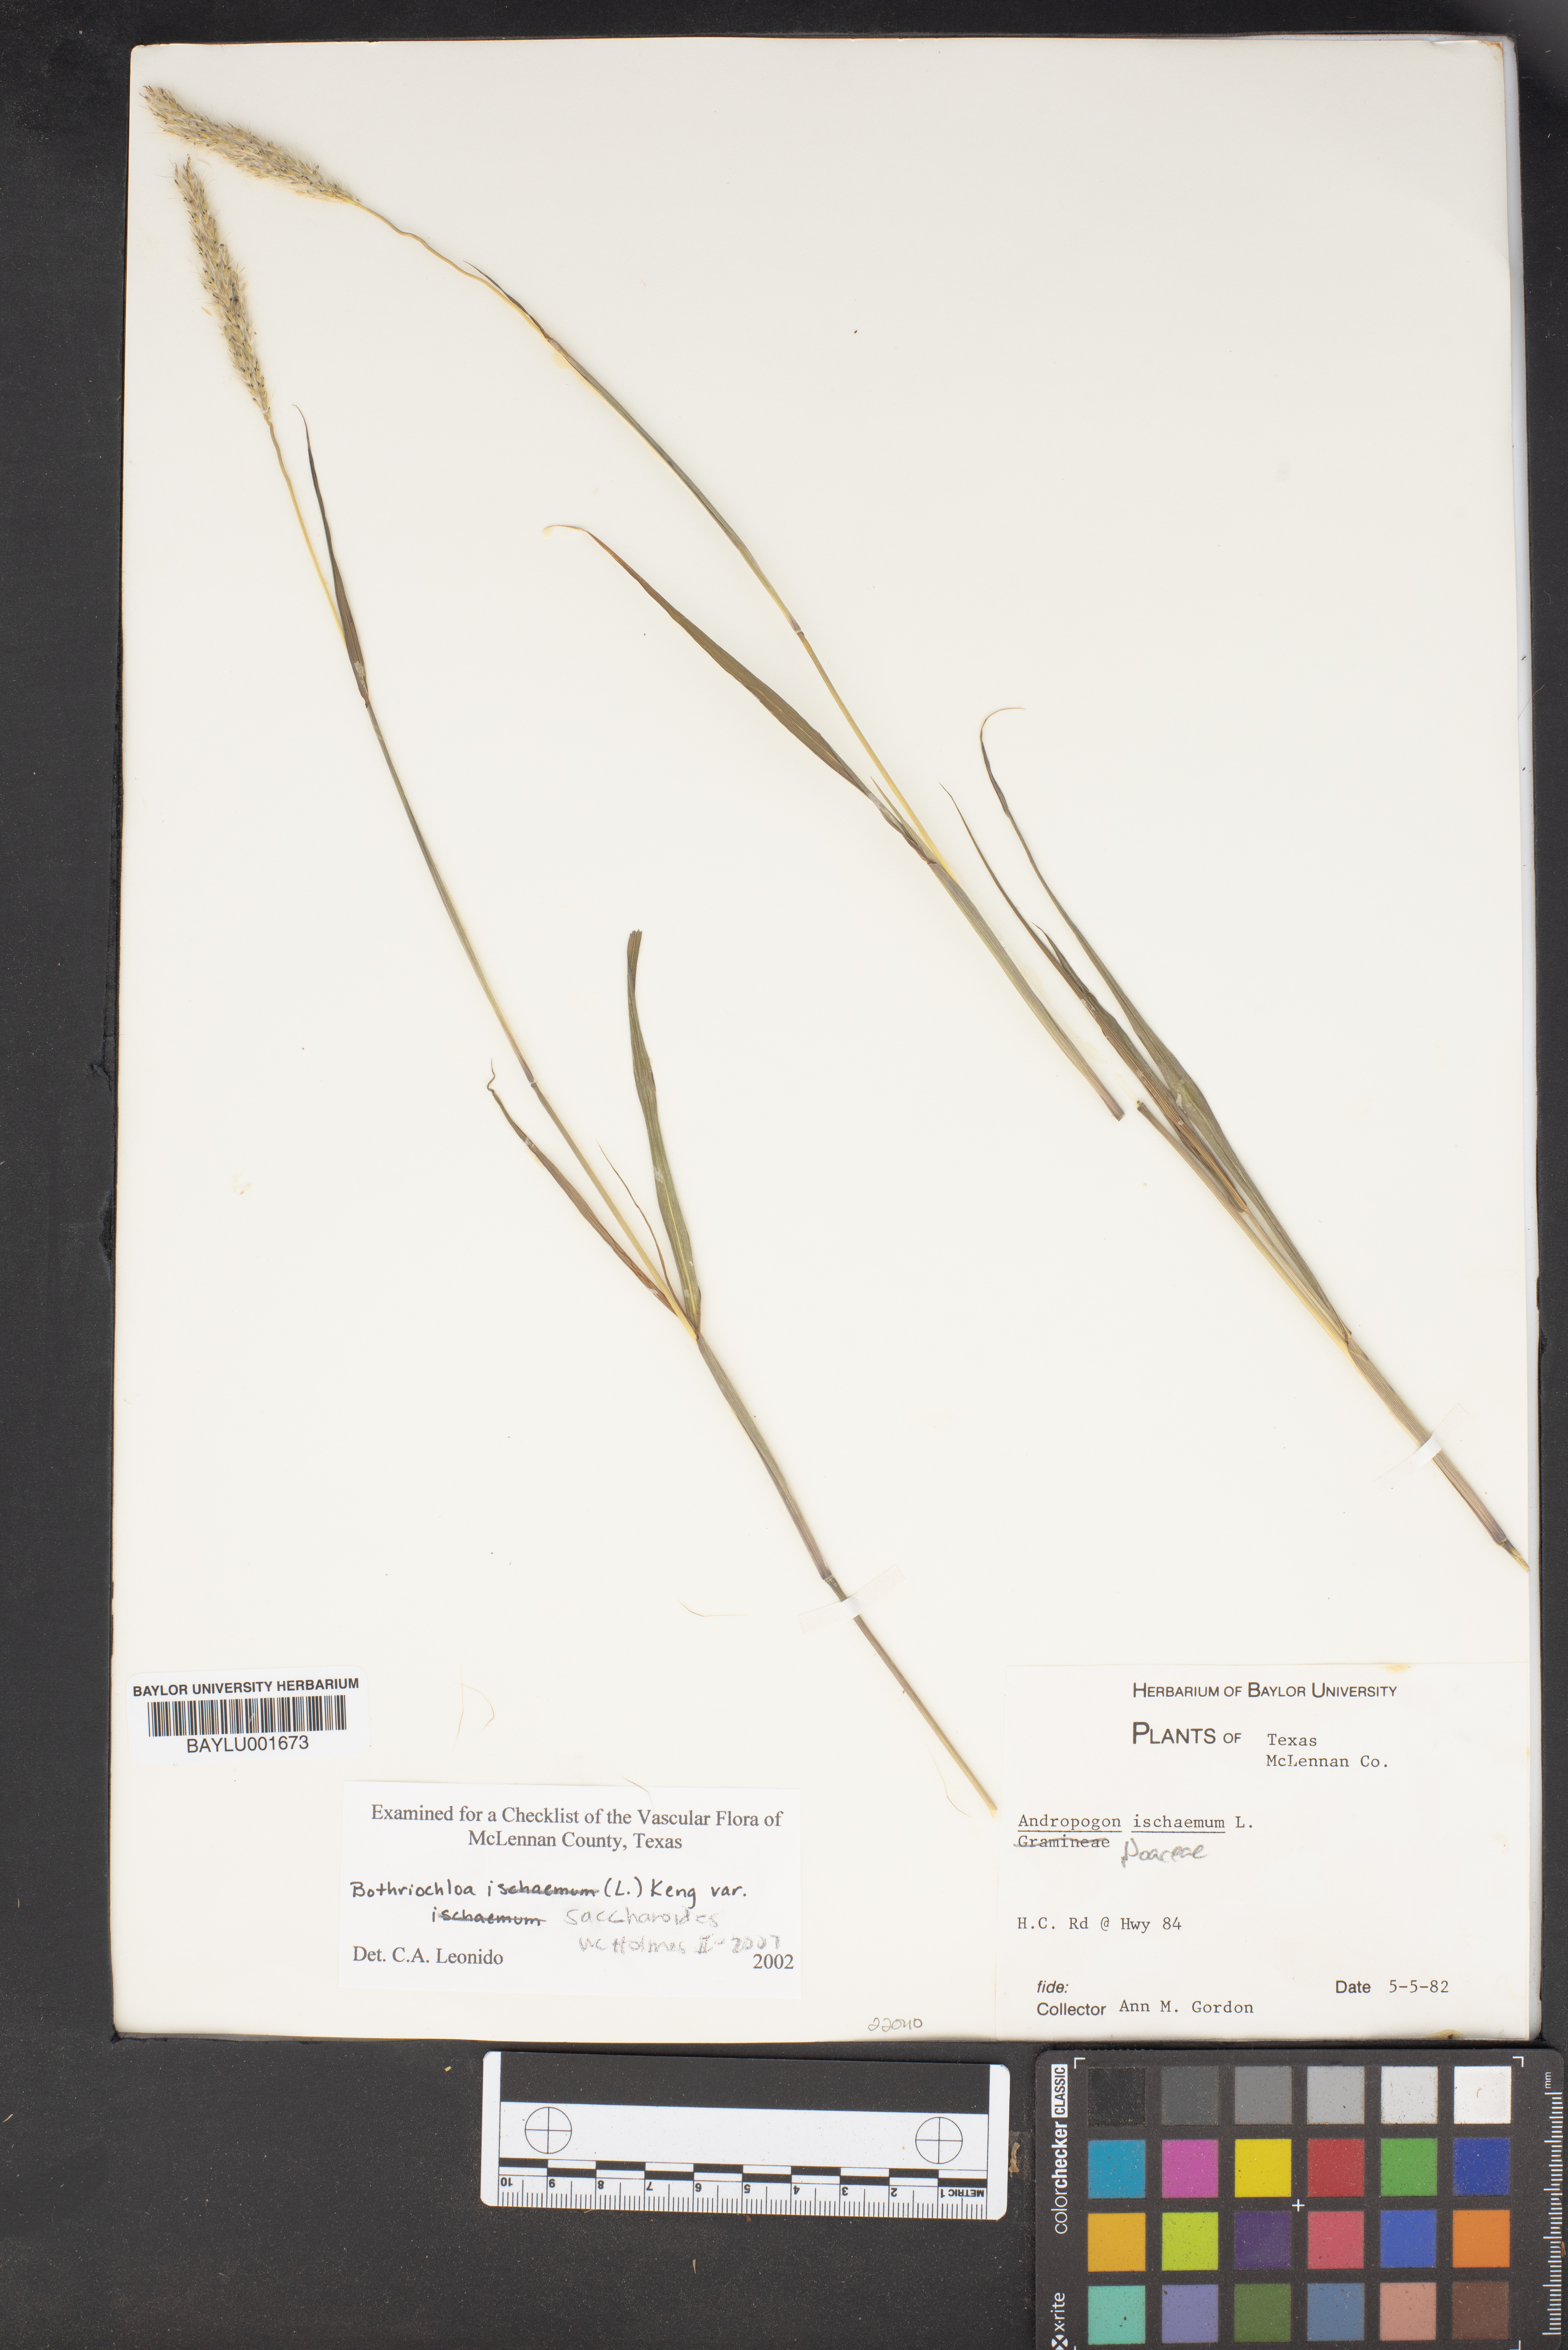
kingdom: Plantae
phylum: Tracheophyta
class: Liliopsida
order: Poales
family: Poaceae
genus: Bothriochloa
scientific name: Bothriochloa saccharoides
